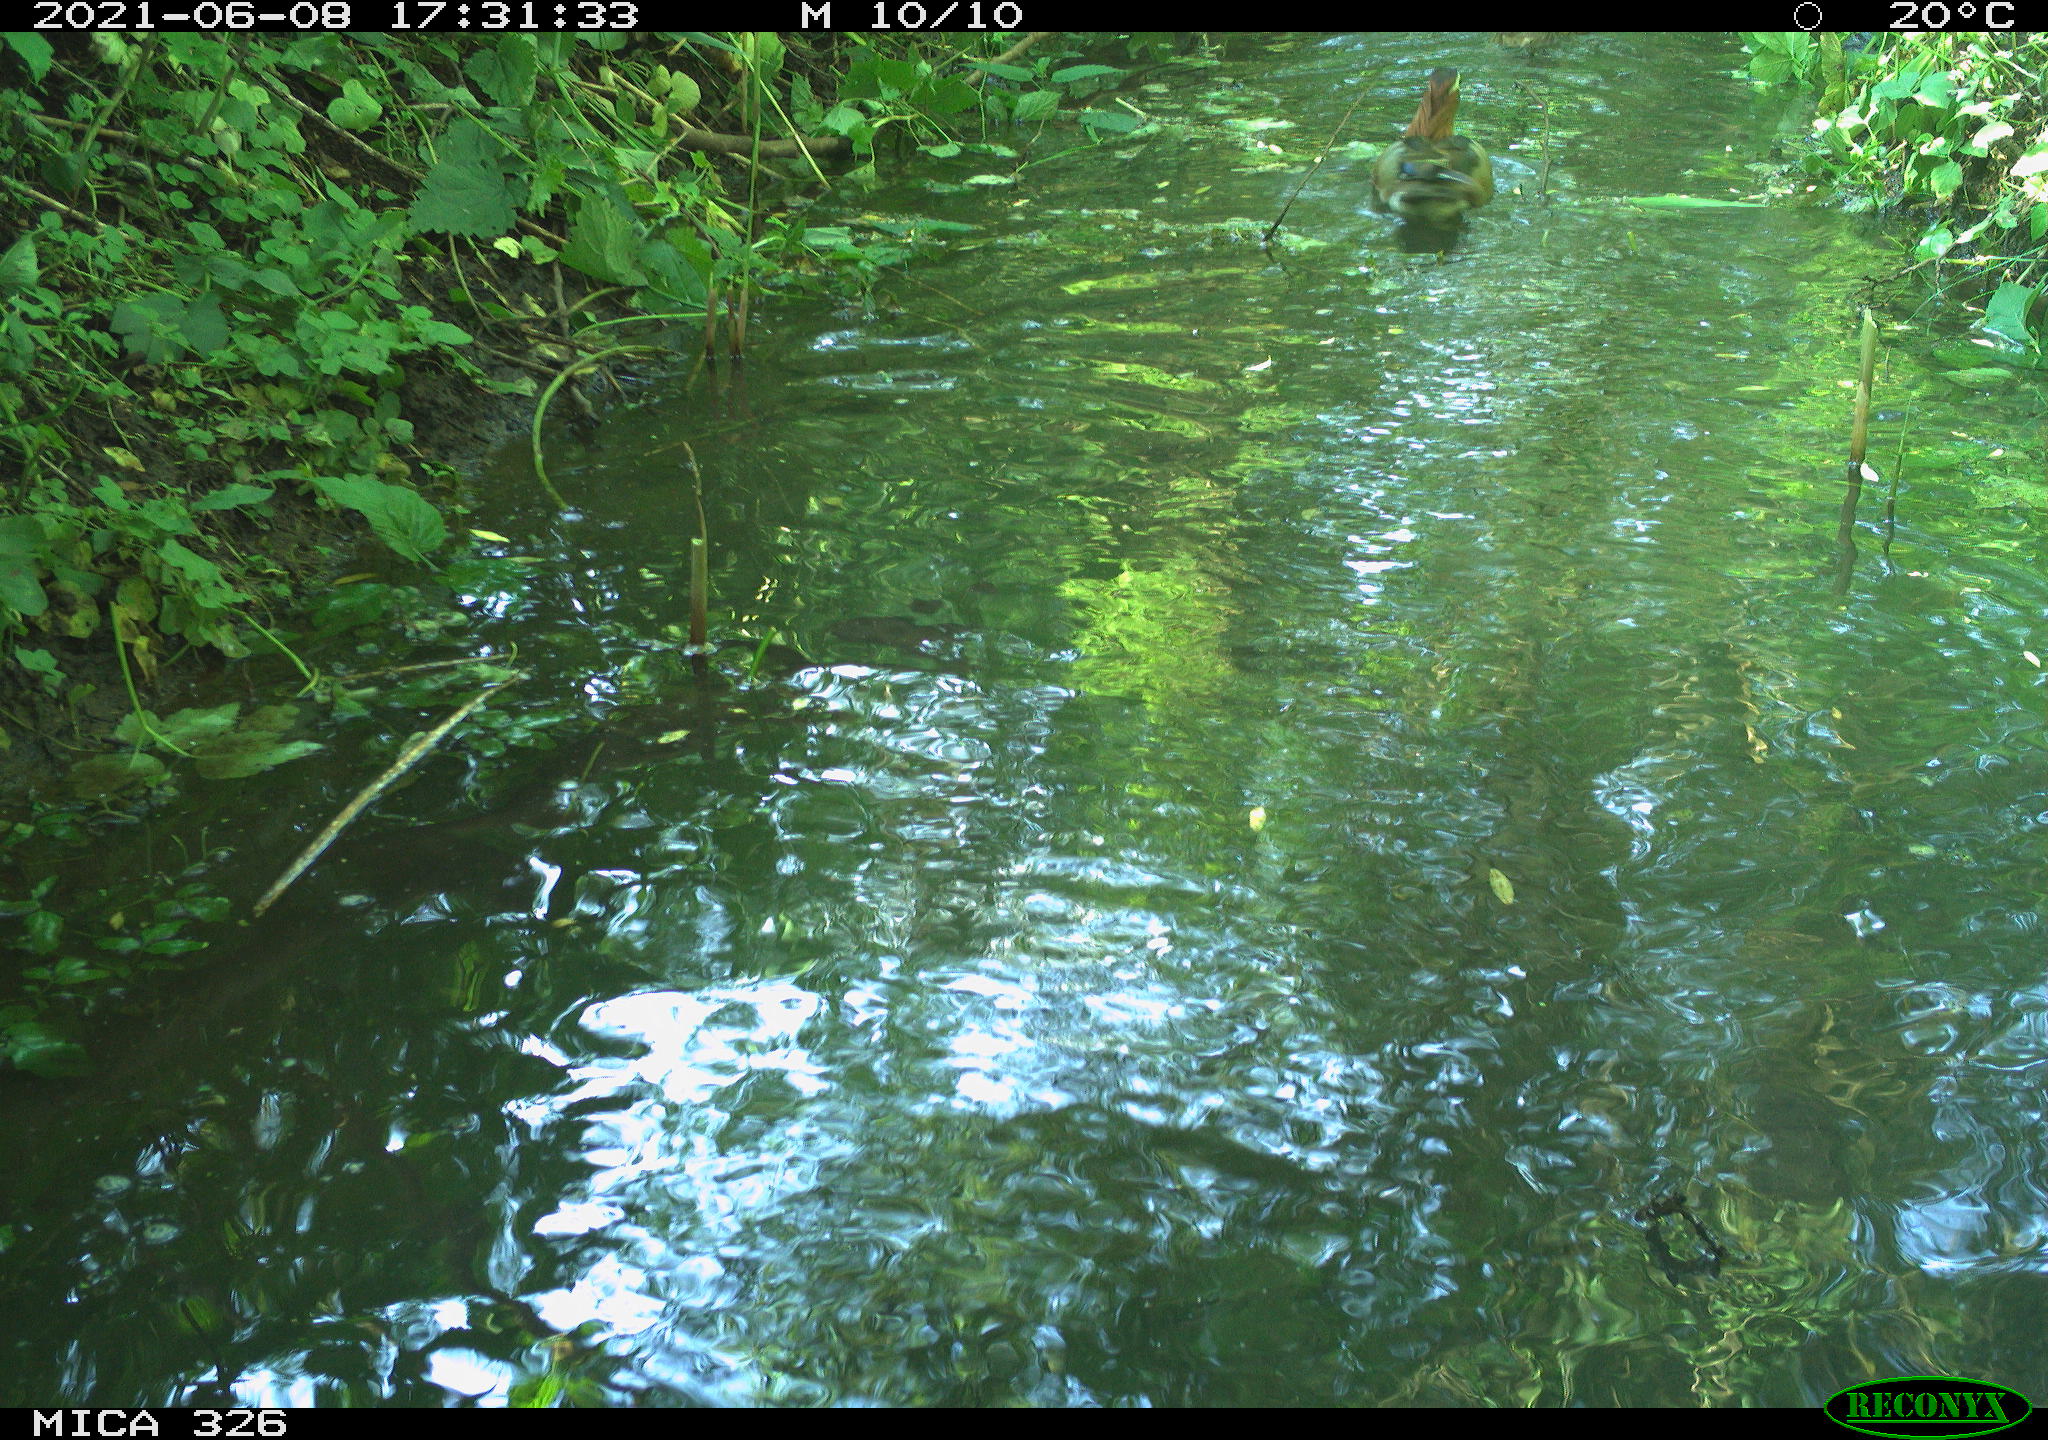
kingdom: Animalia
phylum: Chordata
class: Aves
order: Anseriformes
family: Anatidae
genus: Aix
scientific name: Aix galericulata
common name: Mandarin duck
